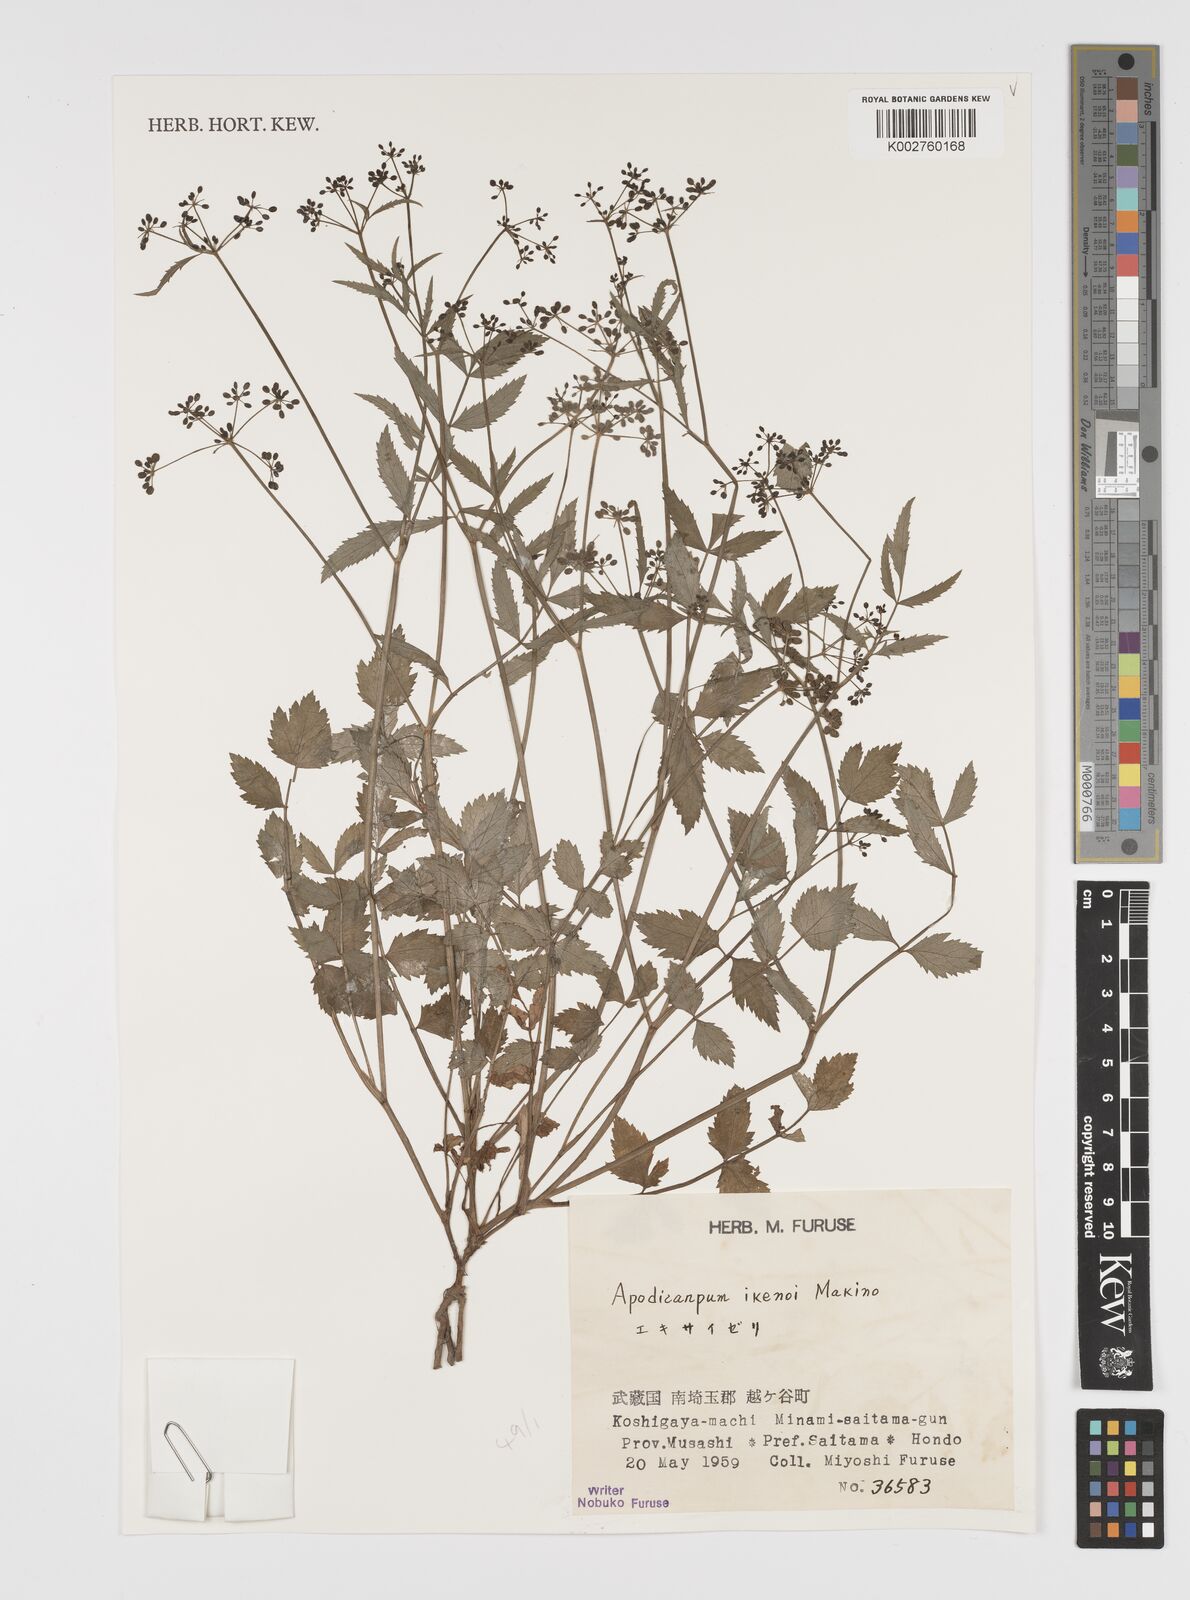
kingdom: Plantae
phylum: Tracheophyta
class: Magnoliopsida
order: Apiales
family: Apiaceae
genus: Apodicarpum
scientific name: Apodicarpum ikenoi
